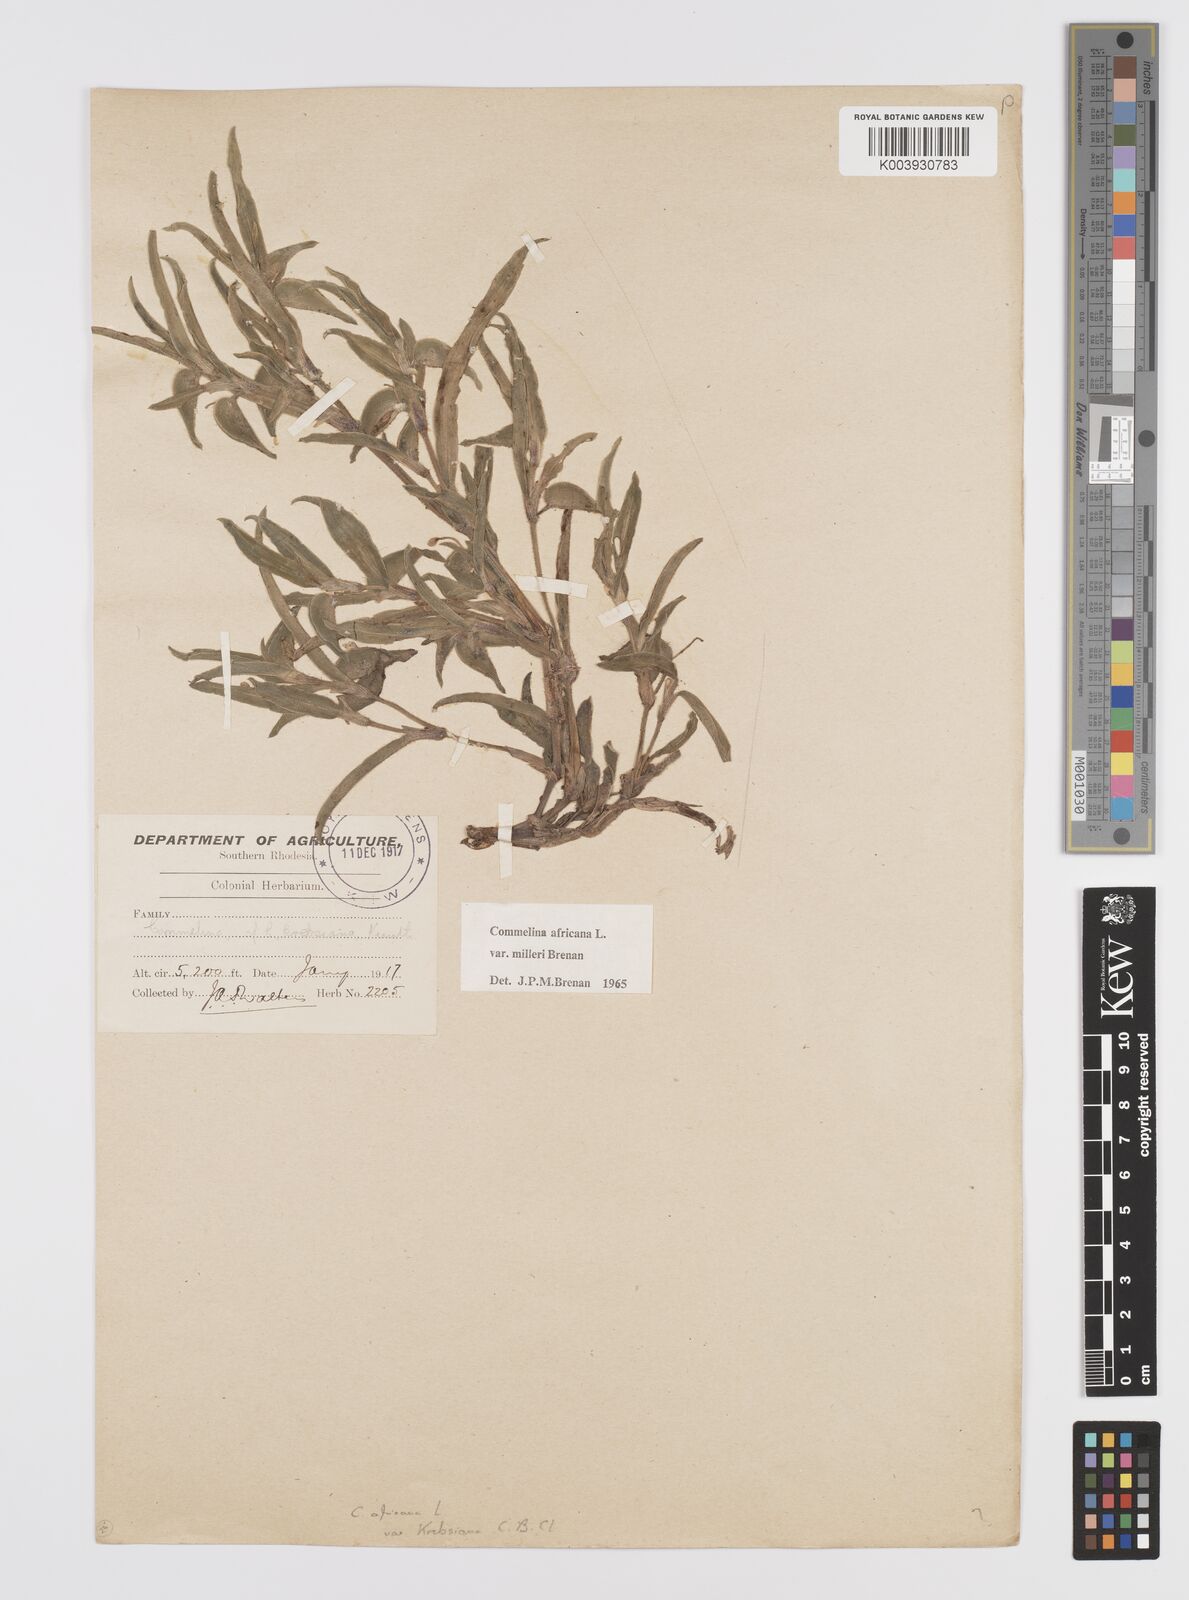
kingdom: Plantae
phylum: Tracheophyta
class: Liliopsida
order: Commelinales
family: Commelinaceae
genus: Commelina
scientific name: Commelina africana
